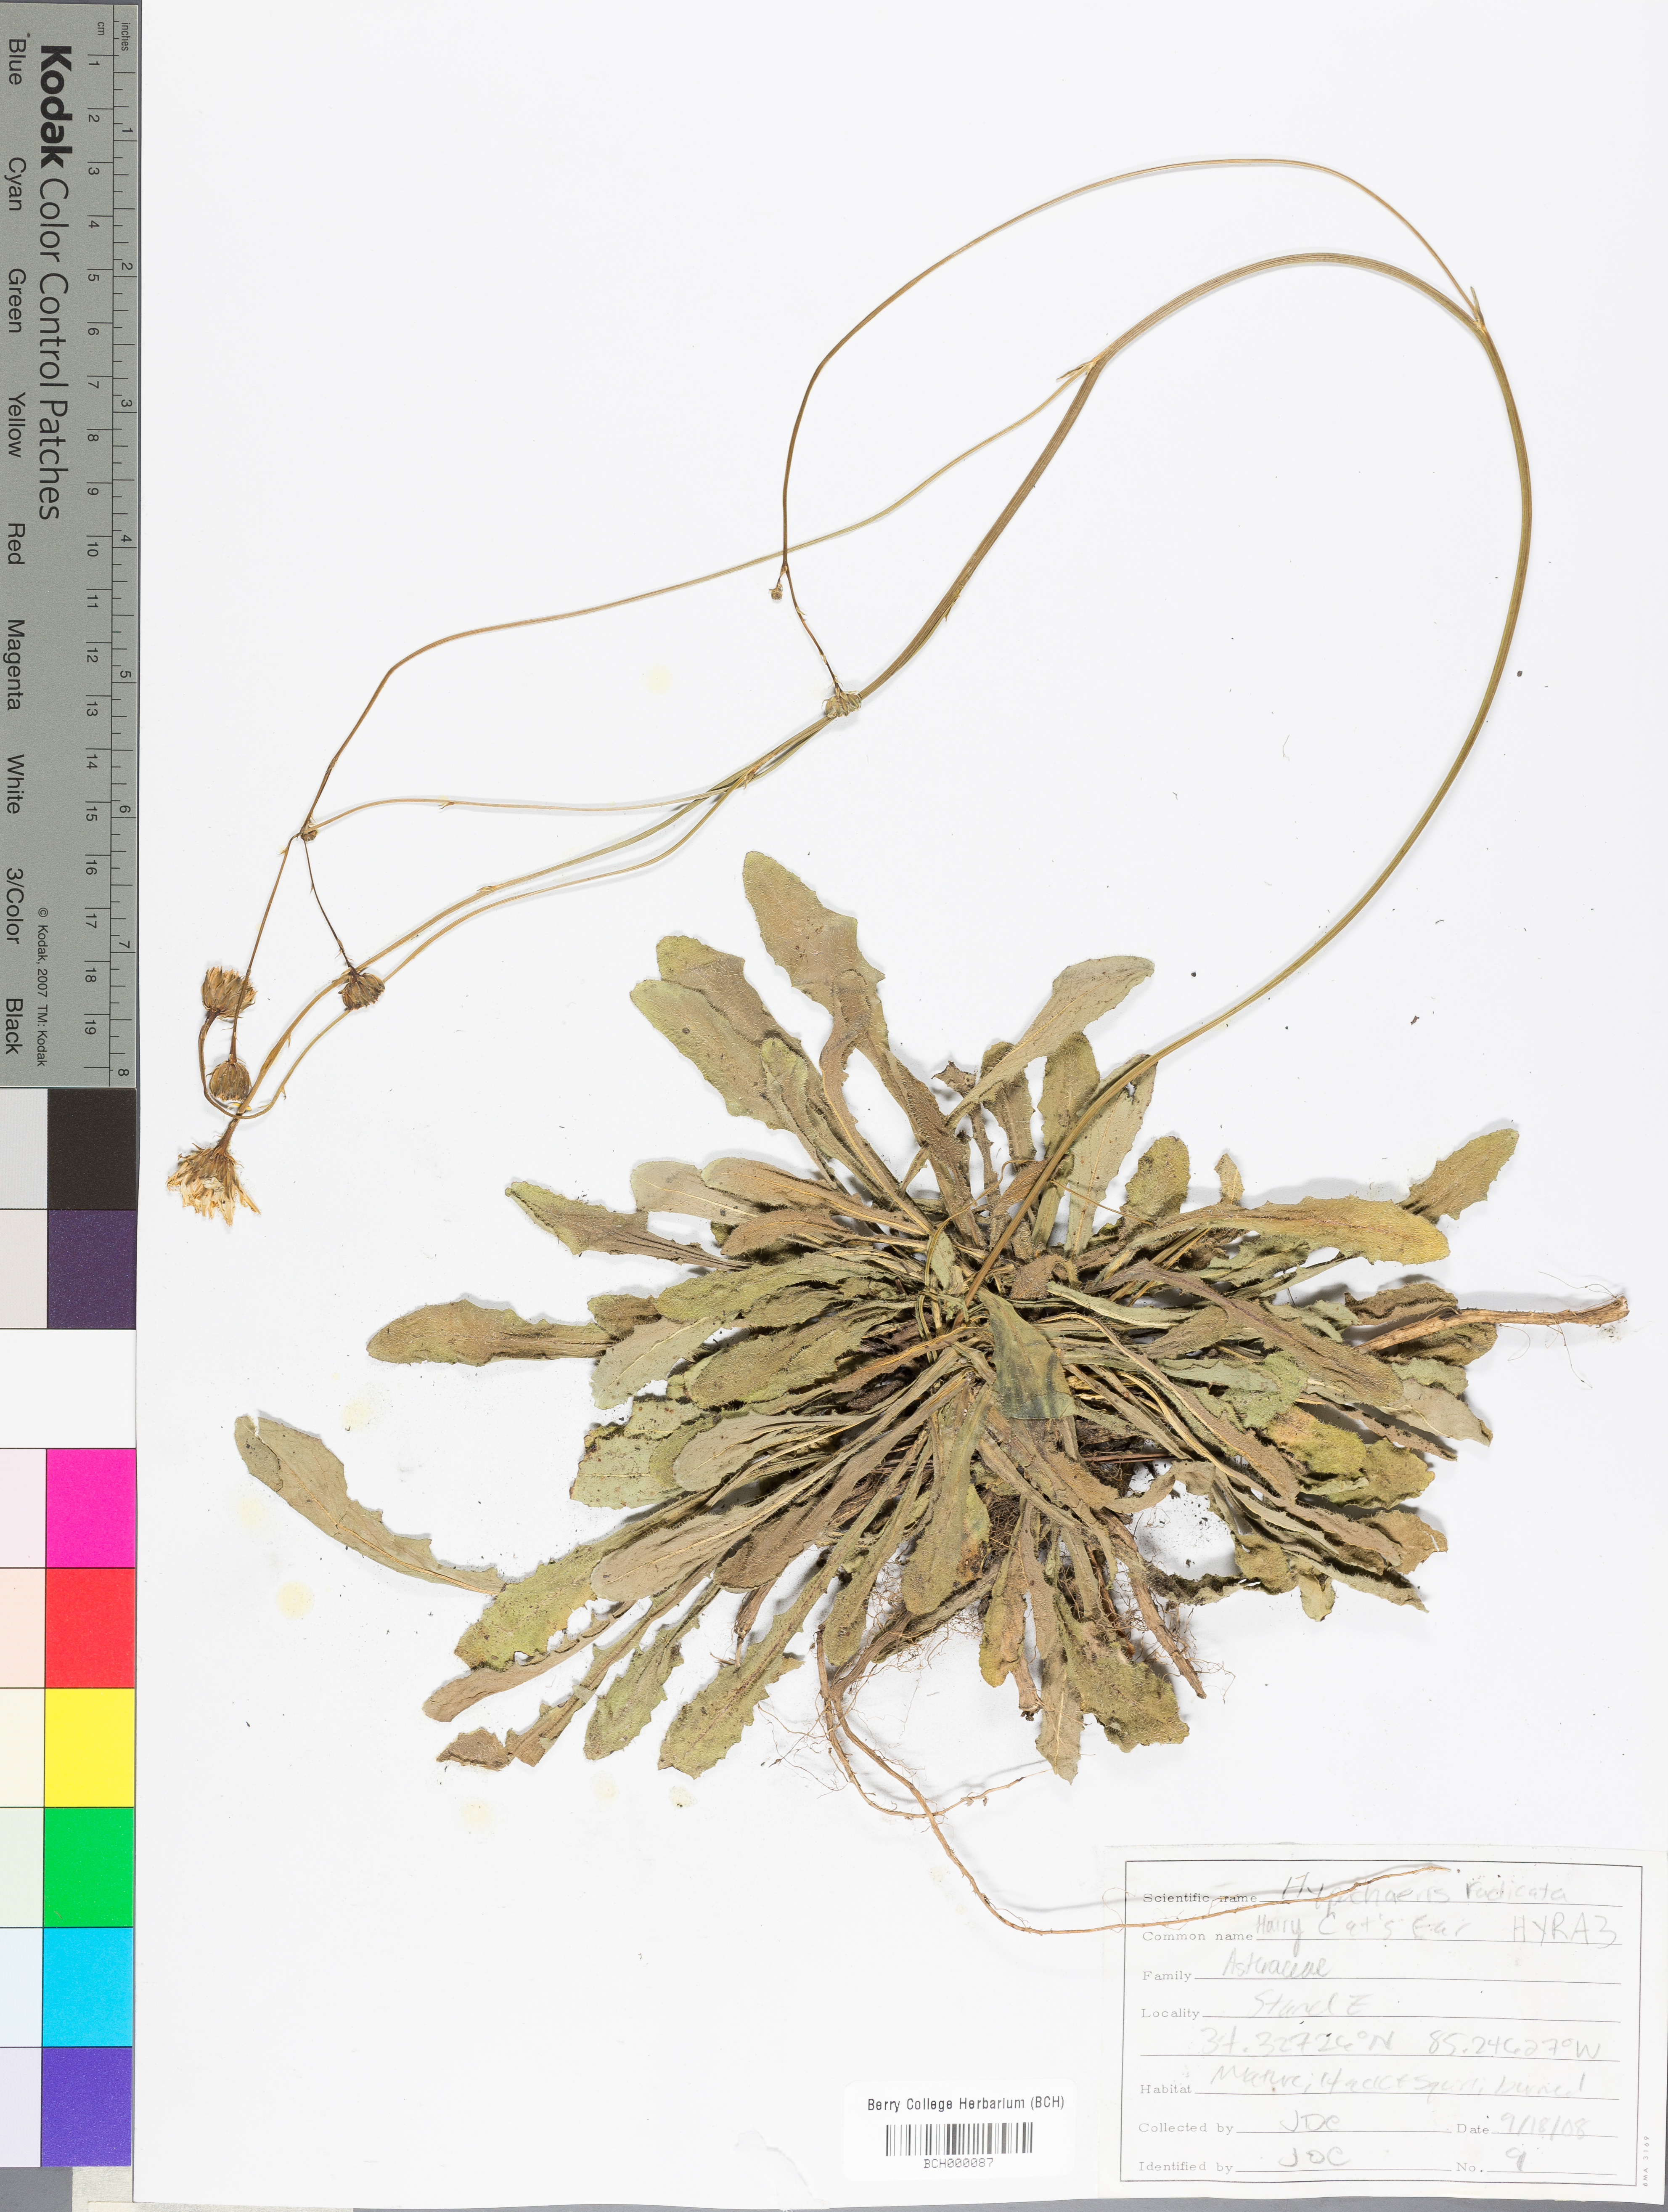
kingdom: Plantae
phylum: Tracheophyta
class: Magnoliopsida
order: Asterales
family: Asteraceae
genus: Hypochaeris
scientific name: Hypochaeris radicata
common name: Flatweed
